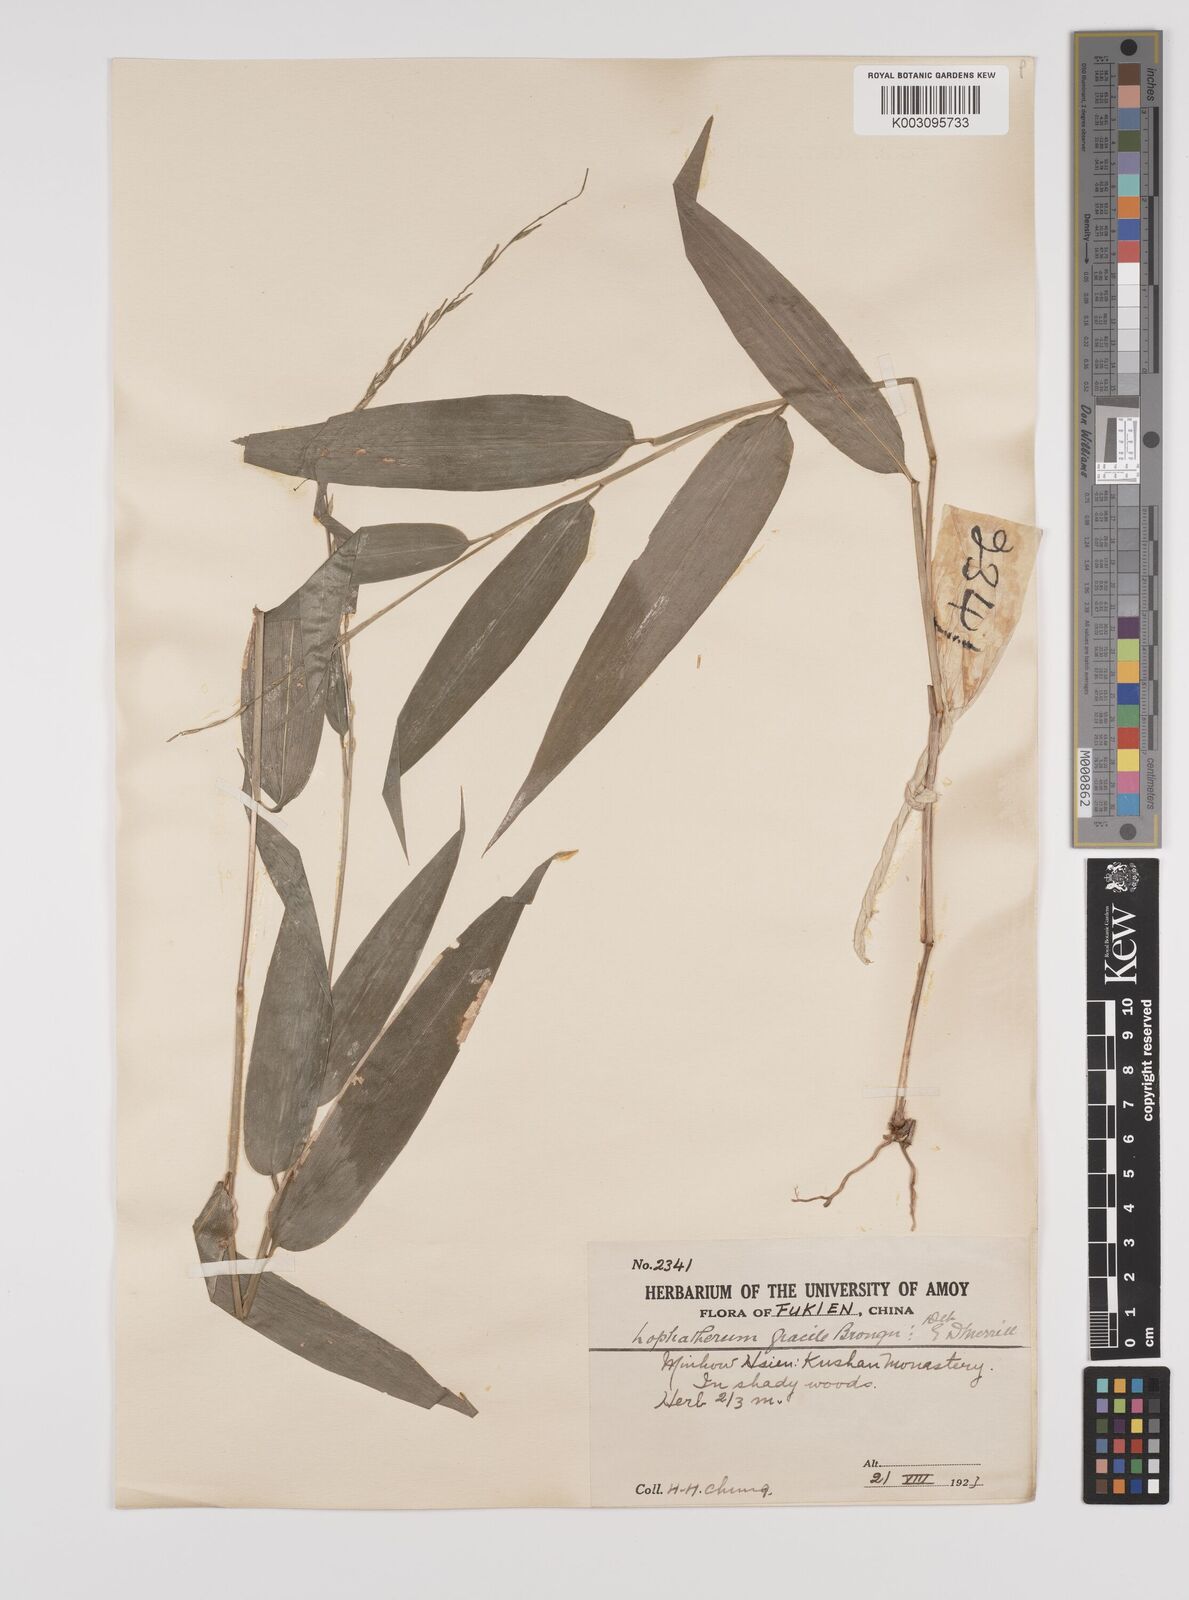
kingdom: Plantae
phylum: Tracheophyta
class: Liliopsida
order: Poales
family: Poaceae
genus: Lophatherum
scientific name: Lophatherum gracile
